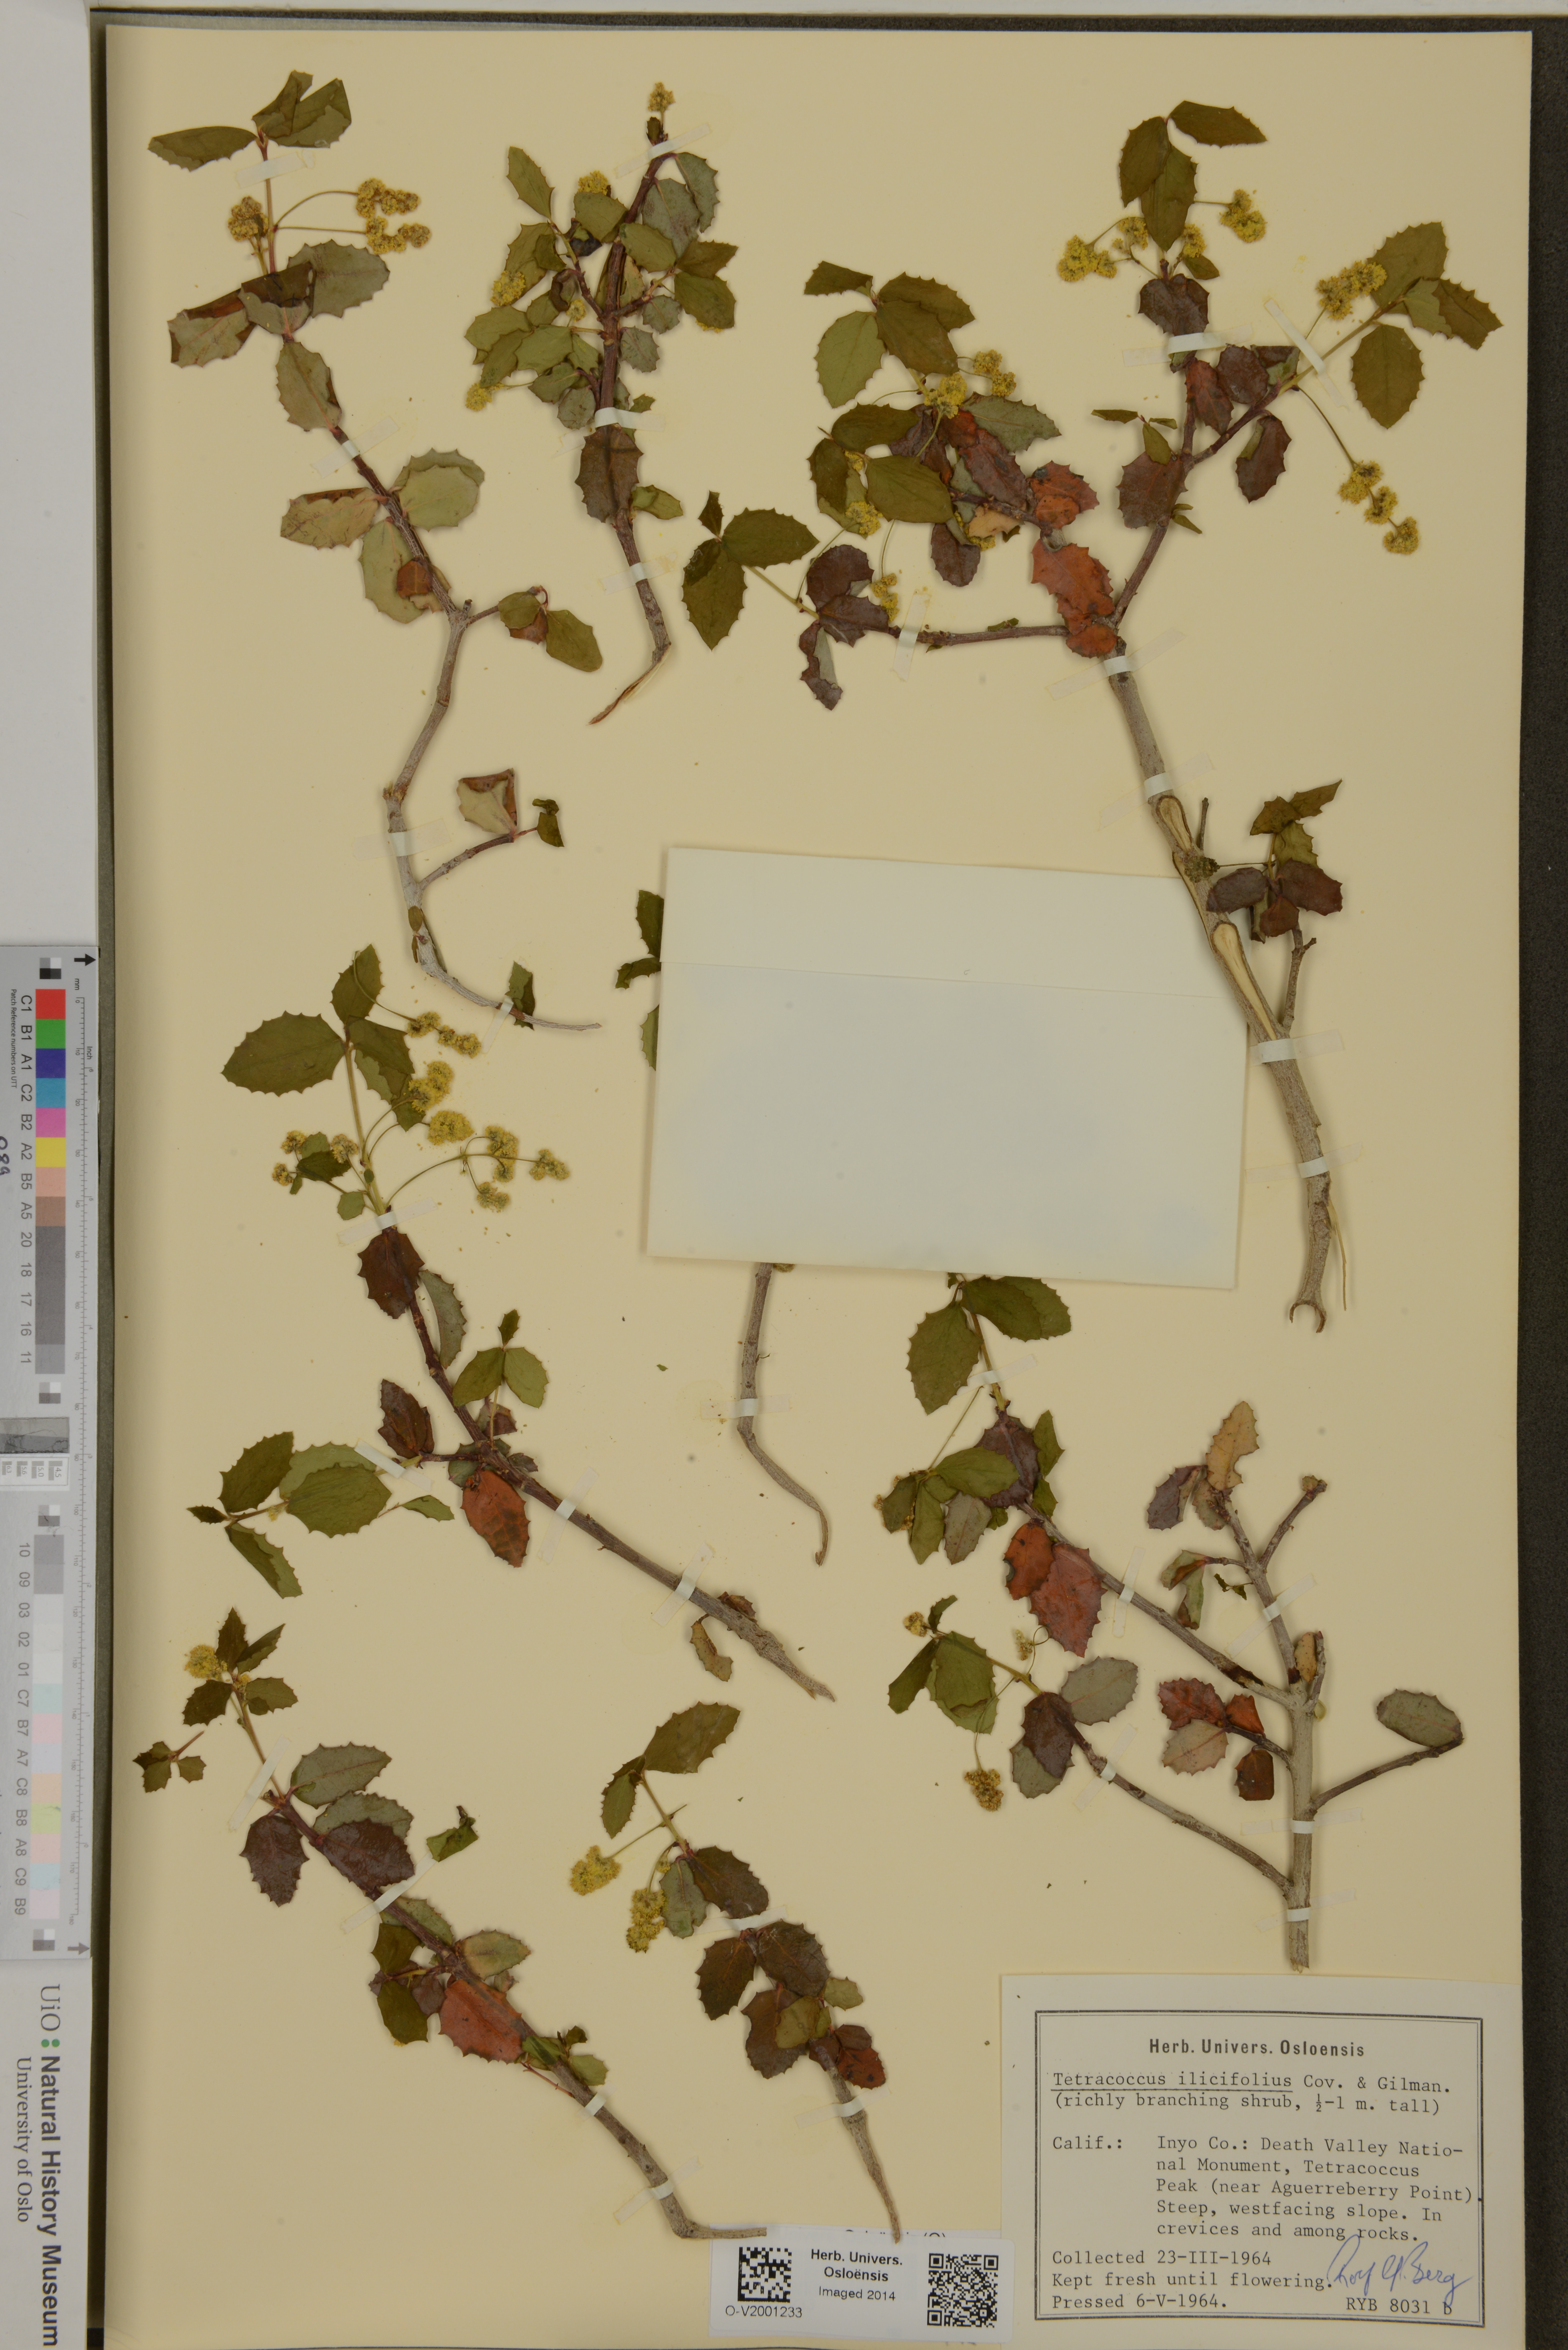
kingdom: Plantae
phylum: Tracheophyta
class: Magnoliopsida
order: Malpighiales
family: Picrodendraceae
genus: Tetracoccus
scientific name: Tetracoccus ilicifolius
